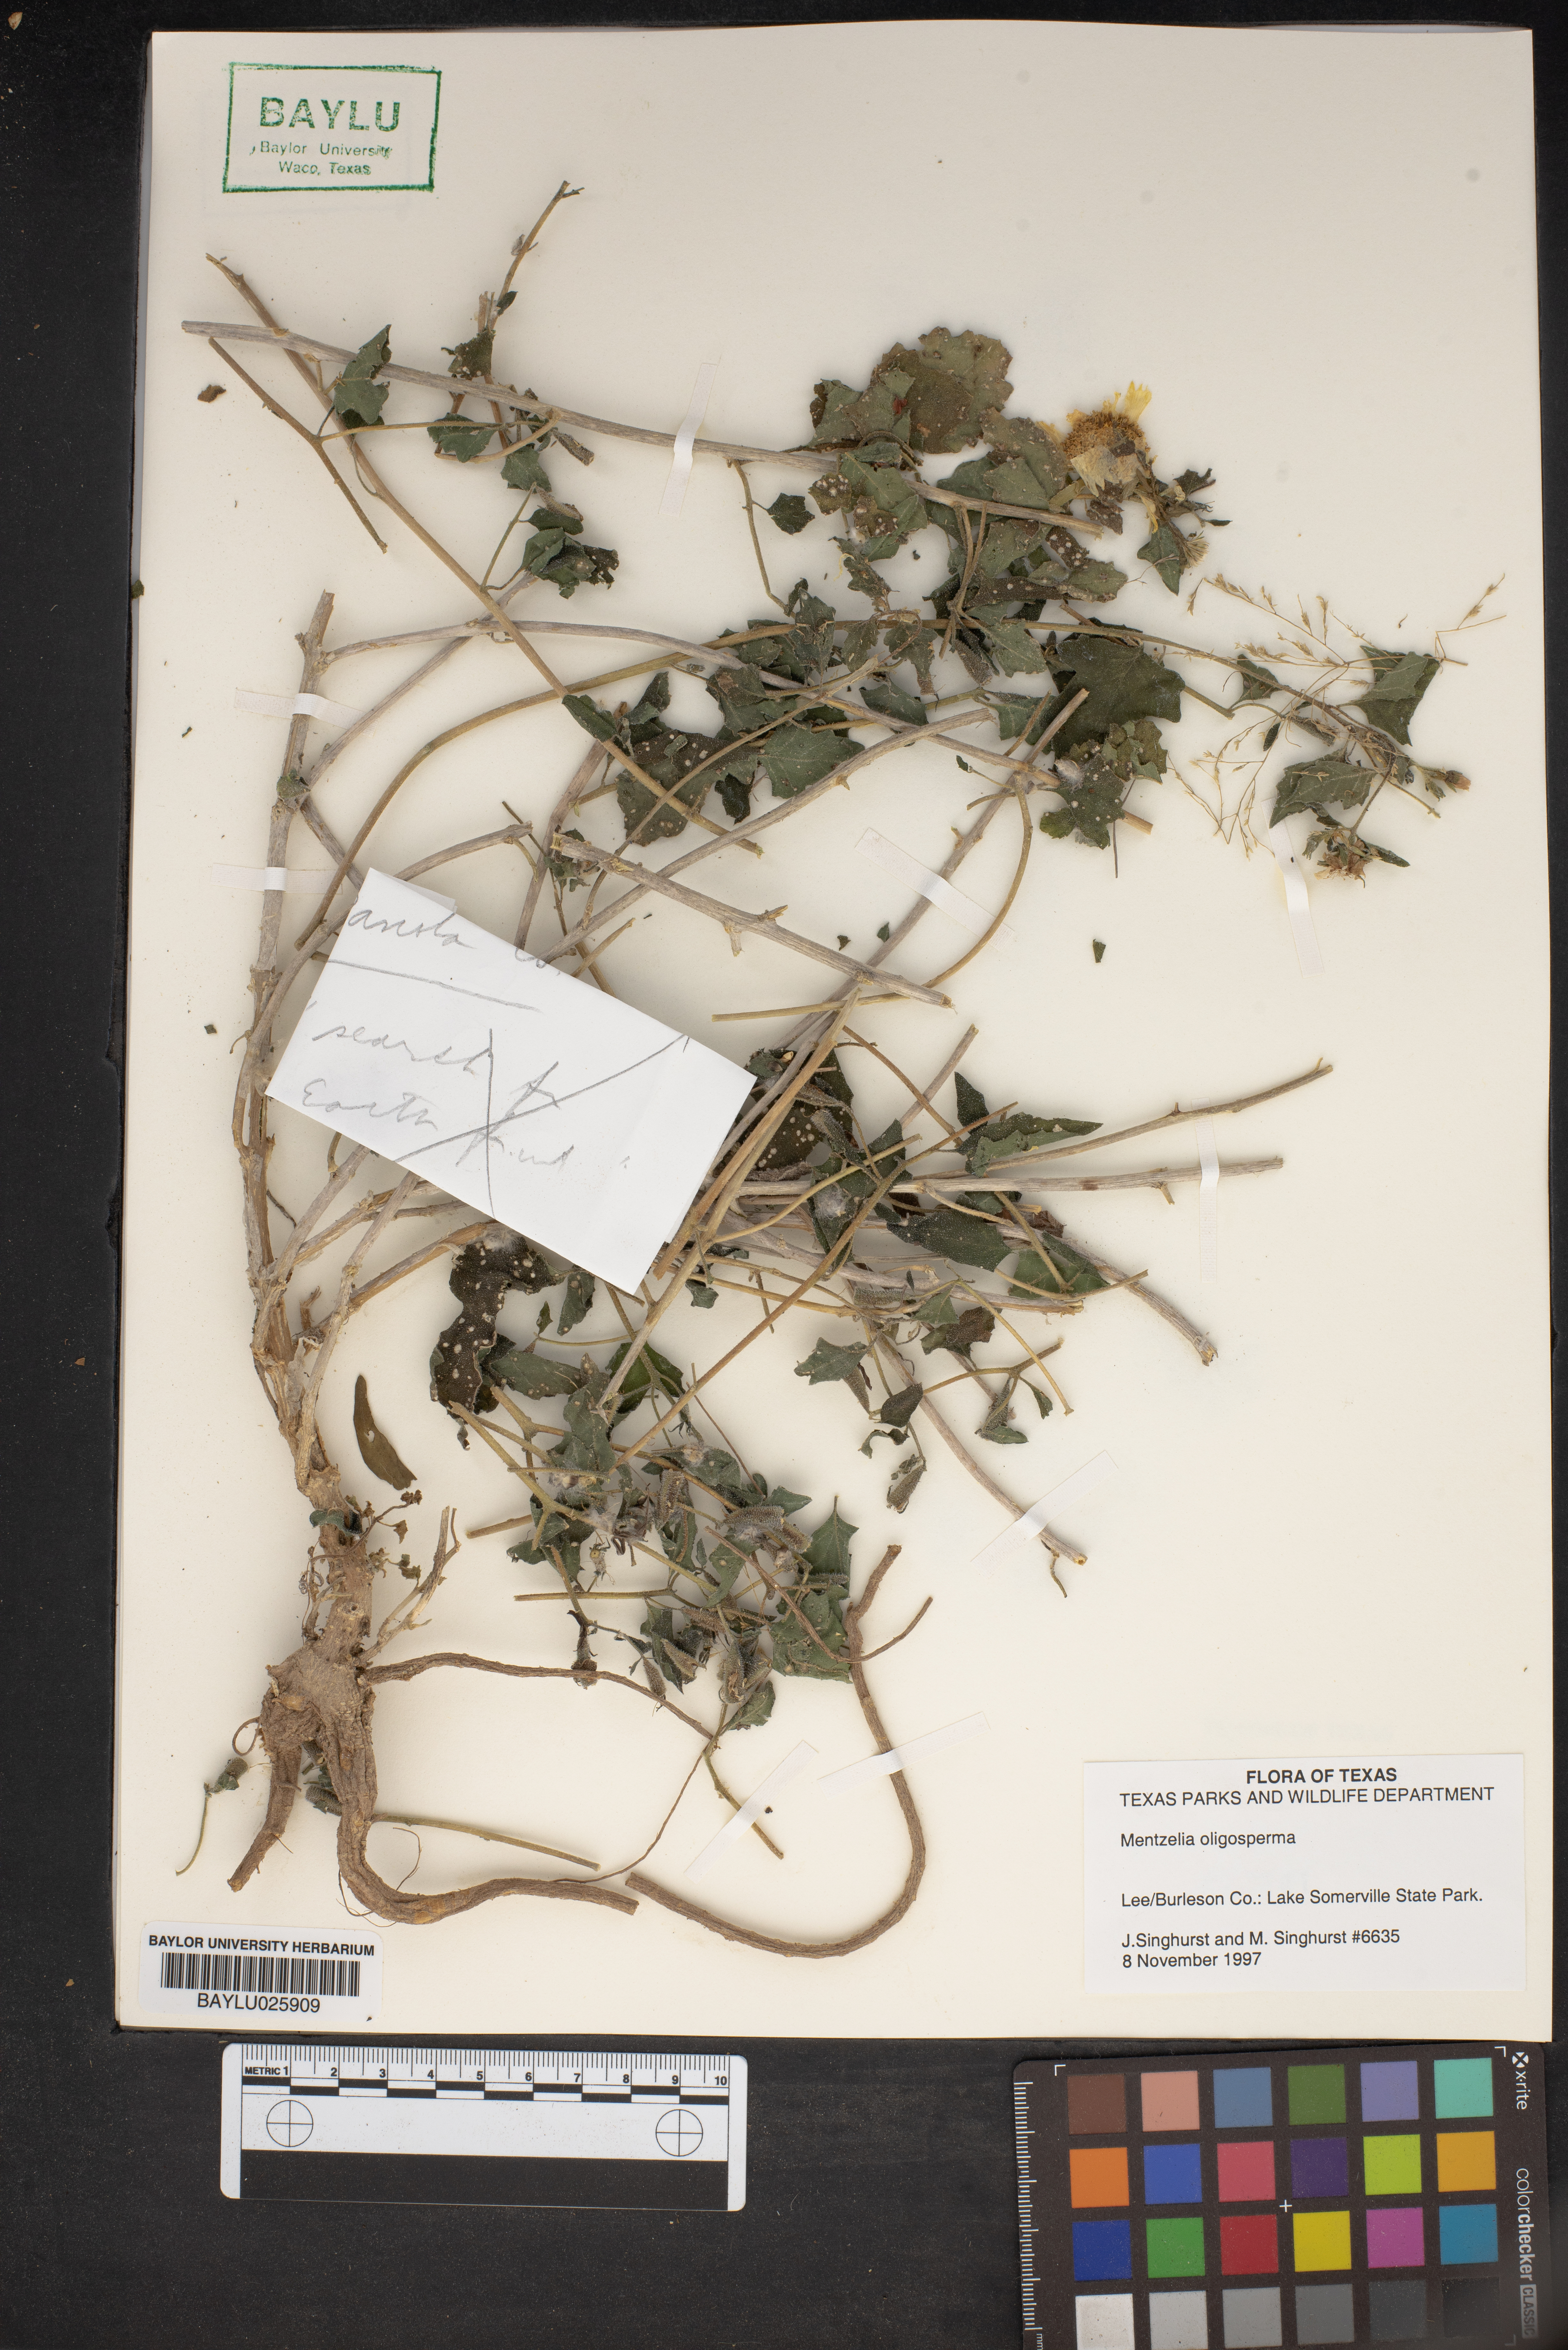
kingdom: Plantae
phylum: Tracheophyta
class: Magnoliopsida
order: Cornales
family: Loasaceae
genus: Mentzelia
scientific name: Mentzelia oligosperma
